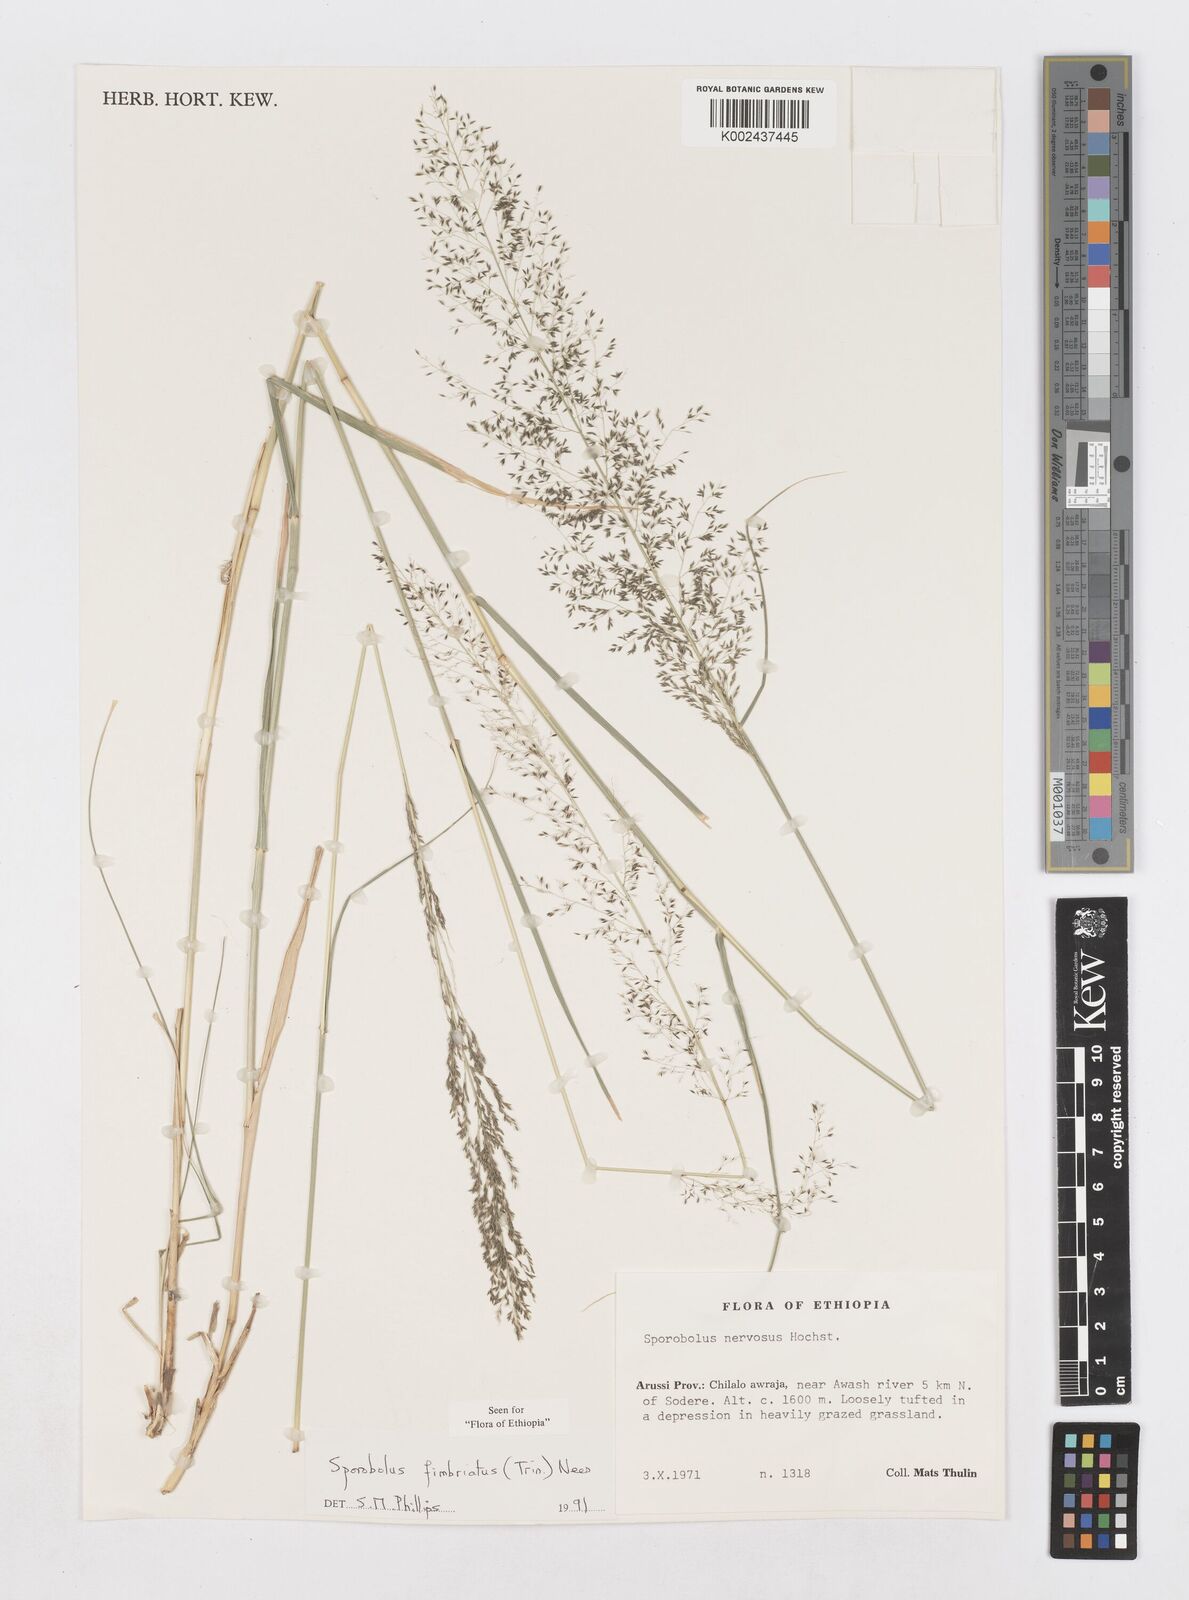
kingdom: Plantae
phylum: Tracheophyta
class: Liliopsida
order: Poales
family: Poaceae
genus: Sporobolus
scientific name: Sporobolus fimbriatus
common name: Fringed dropseed
